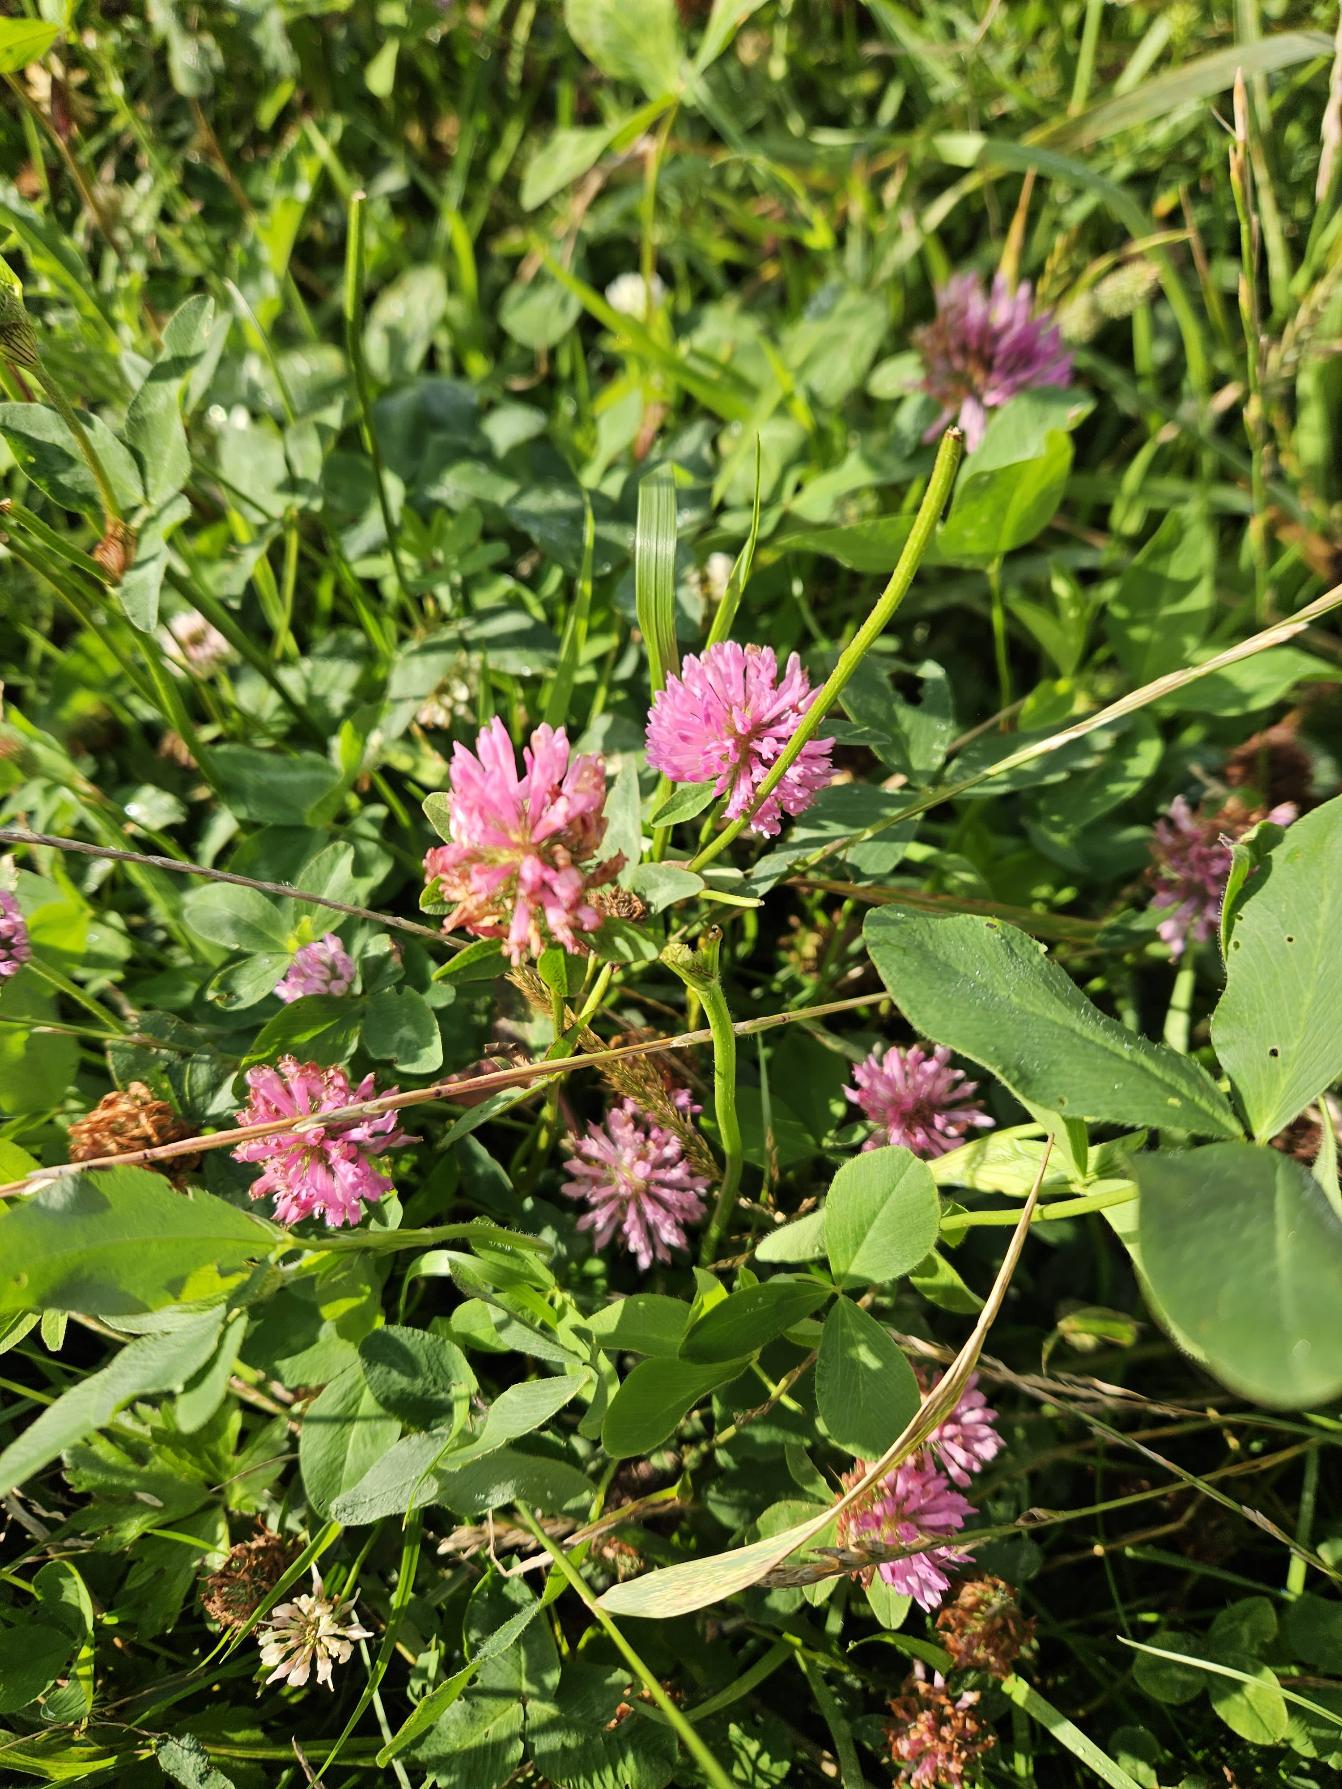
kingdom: Plantae
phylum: Tracheophyta
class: Magnoliopsida
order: Fabales
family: Fabaceae
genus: Trifolium
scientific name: Trifolium pratense
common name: Rød-kløver
